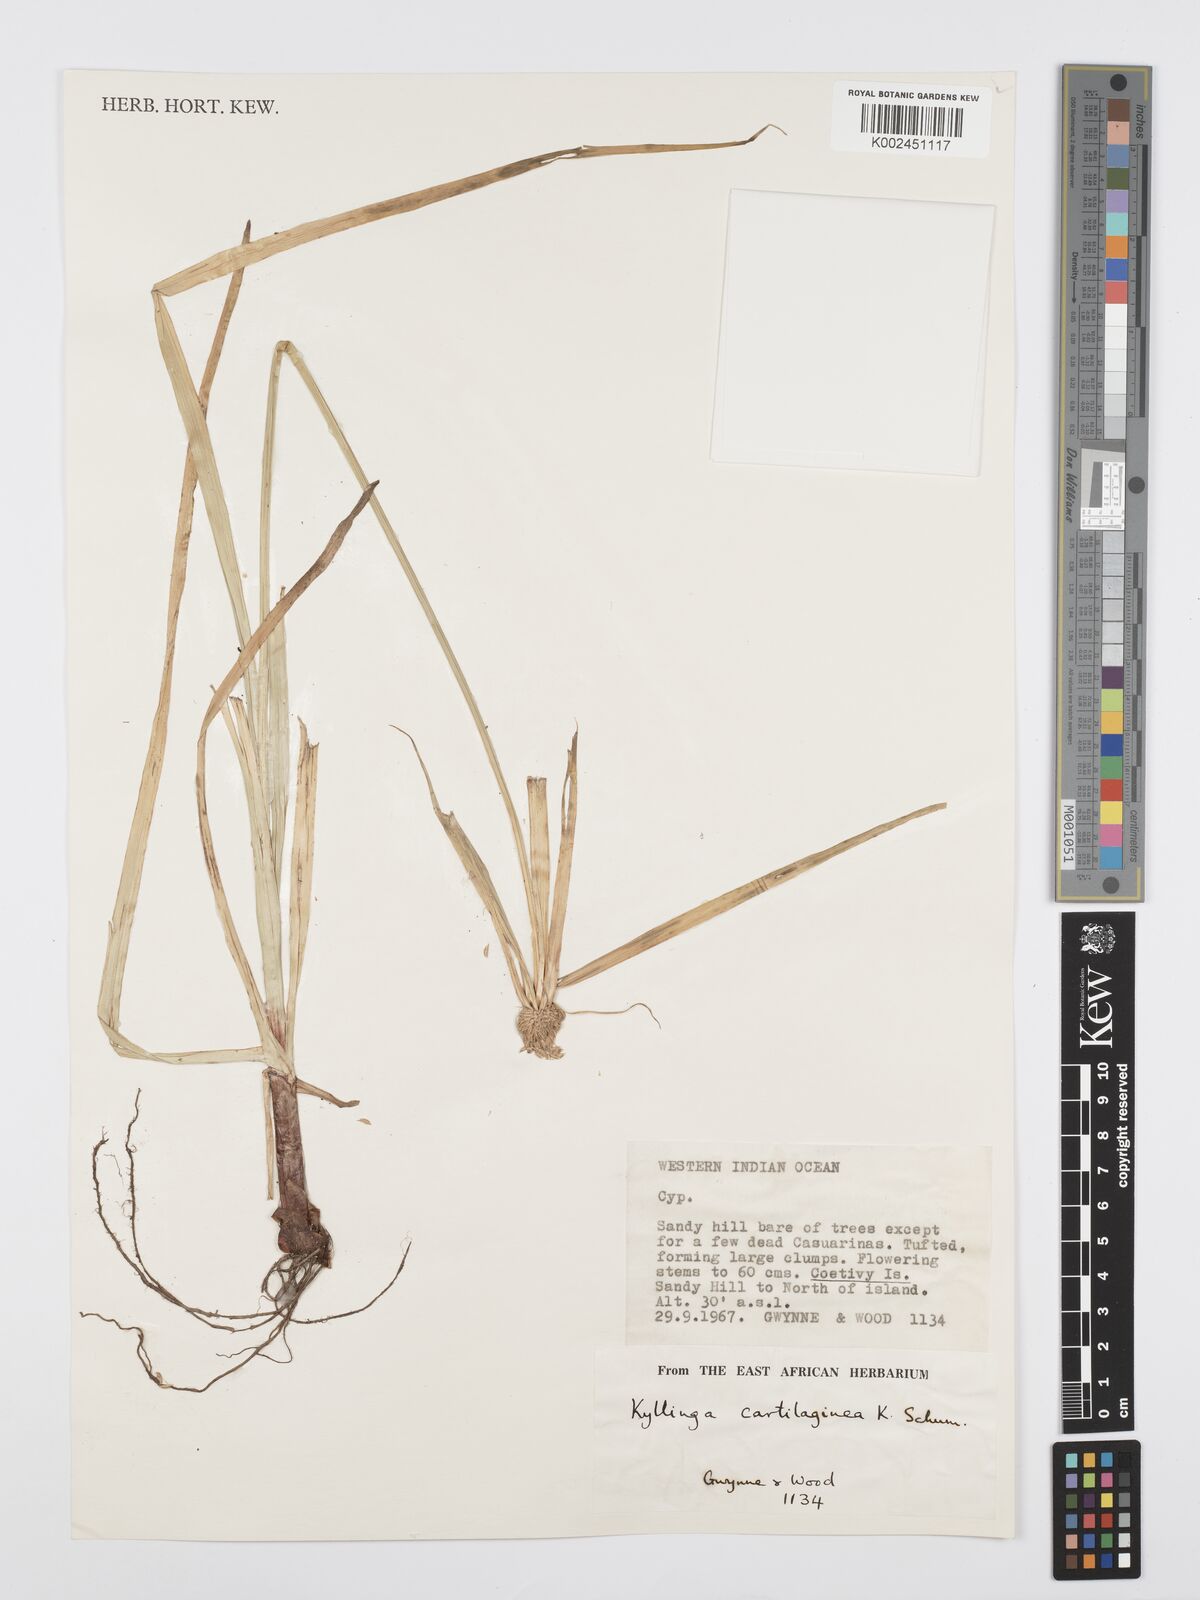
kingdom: Plantae
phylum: Tracheophyta
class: Liliopsida
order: Poales
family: Cyperaceae
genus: Cyperus
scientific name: Cyperus cartilagineus
